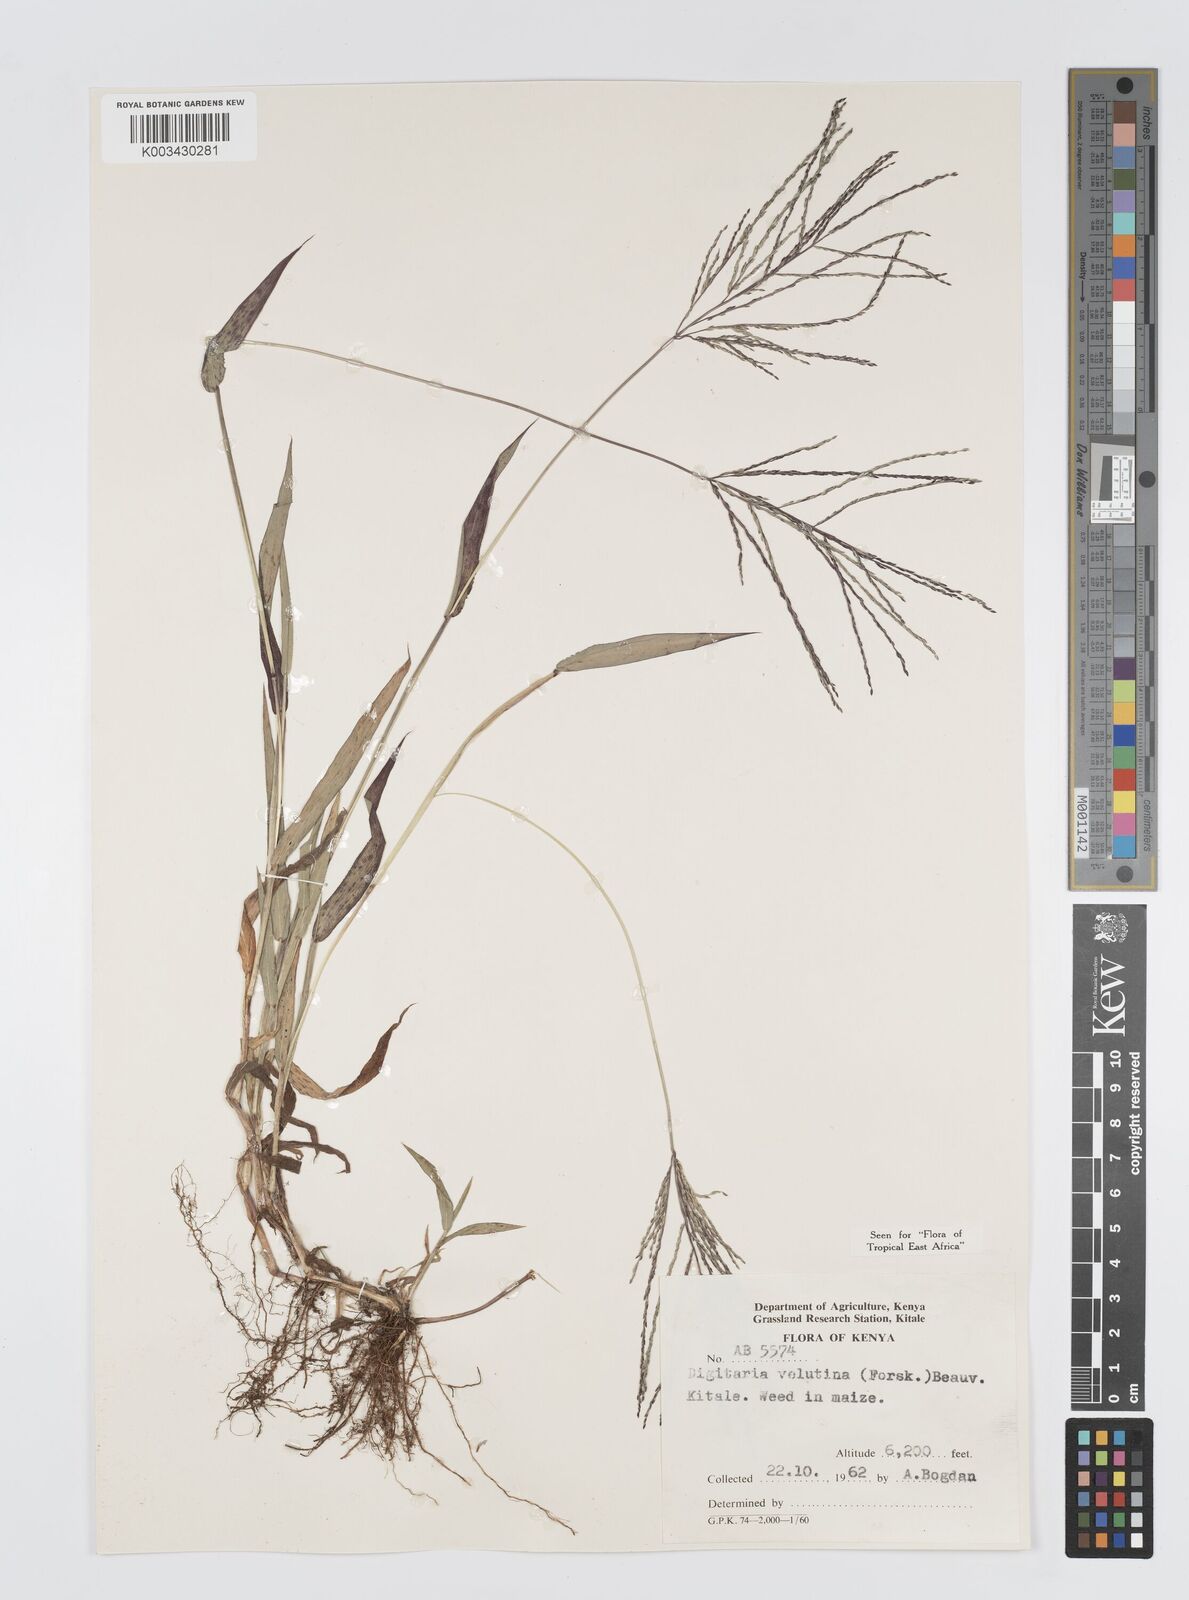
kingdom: Plantae
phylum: Tracheophyta
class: Liliopsida
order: Poales
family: Poaceae
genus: Digitaria
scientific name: Digitaria velutina
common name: Long-plume finger grass
